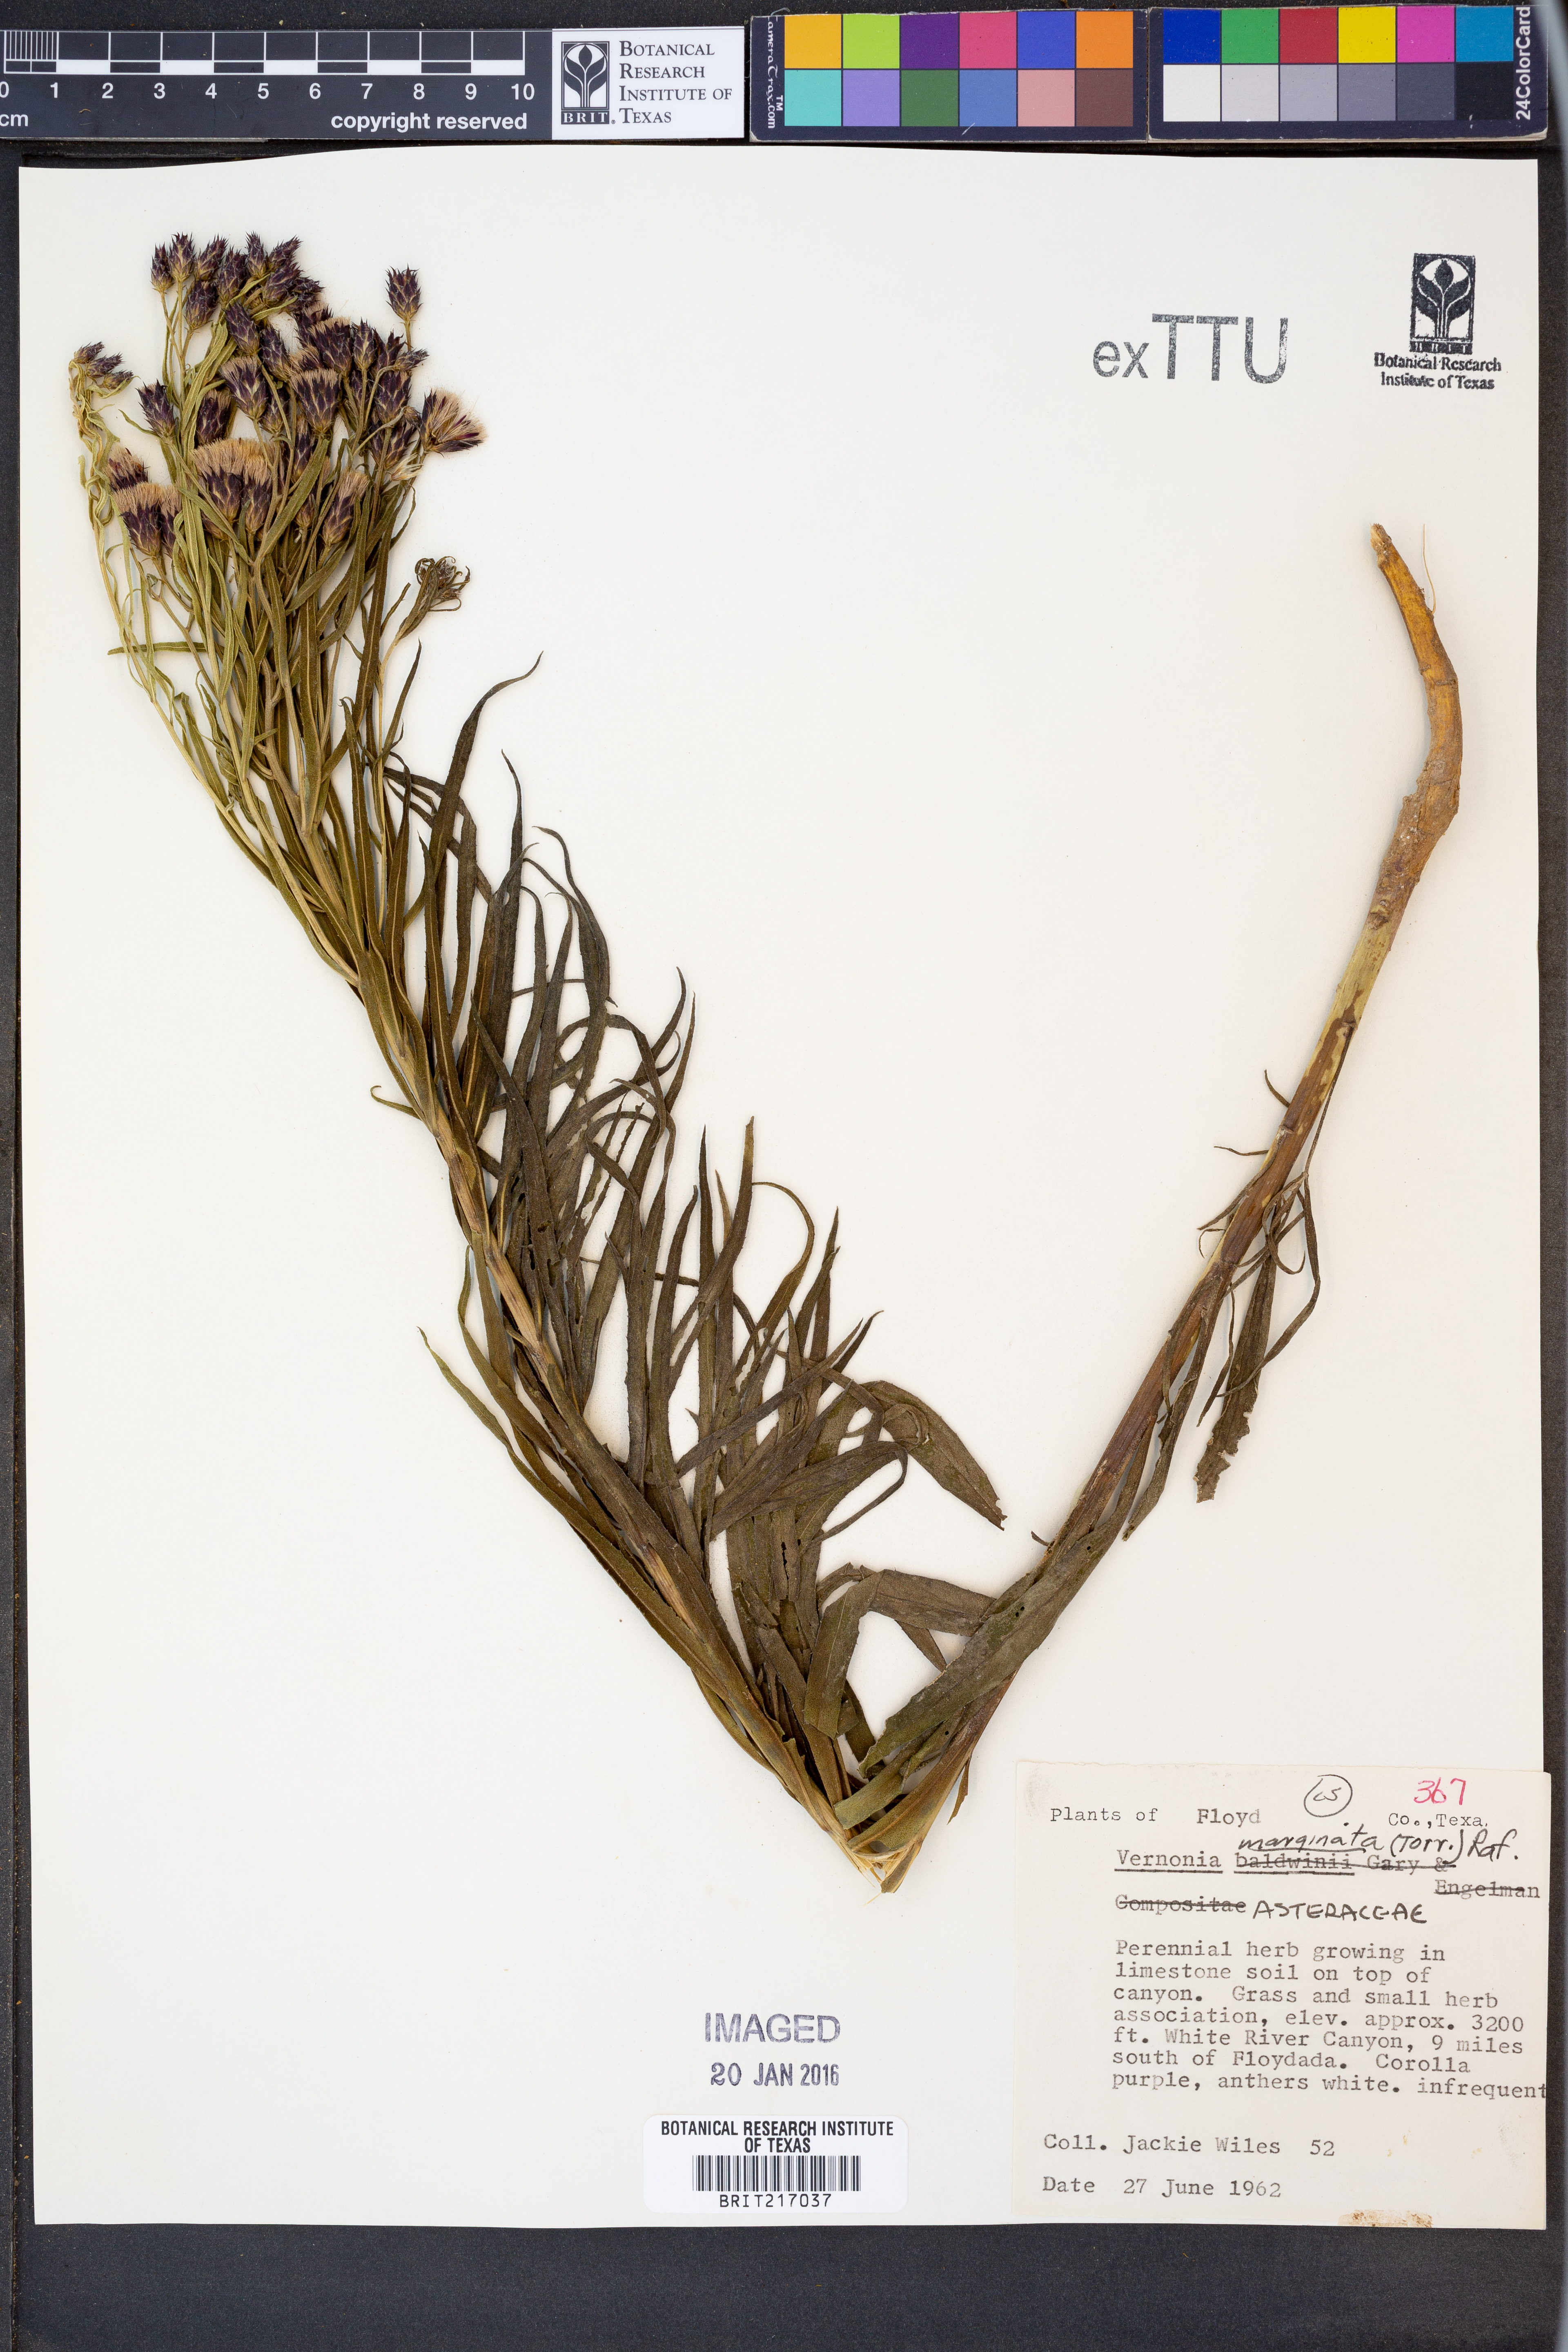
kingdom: Plantae
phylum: Tracheophyta
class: Magnoliopsida
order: Asterales
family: Asteraceae
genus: Vernonia
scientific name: Vernonia marginata
